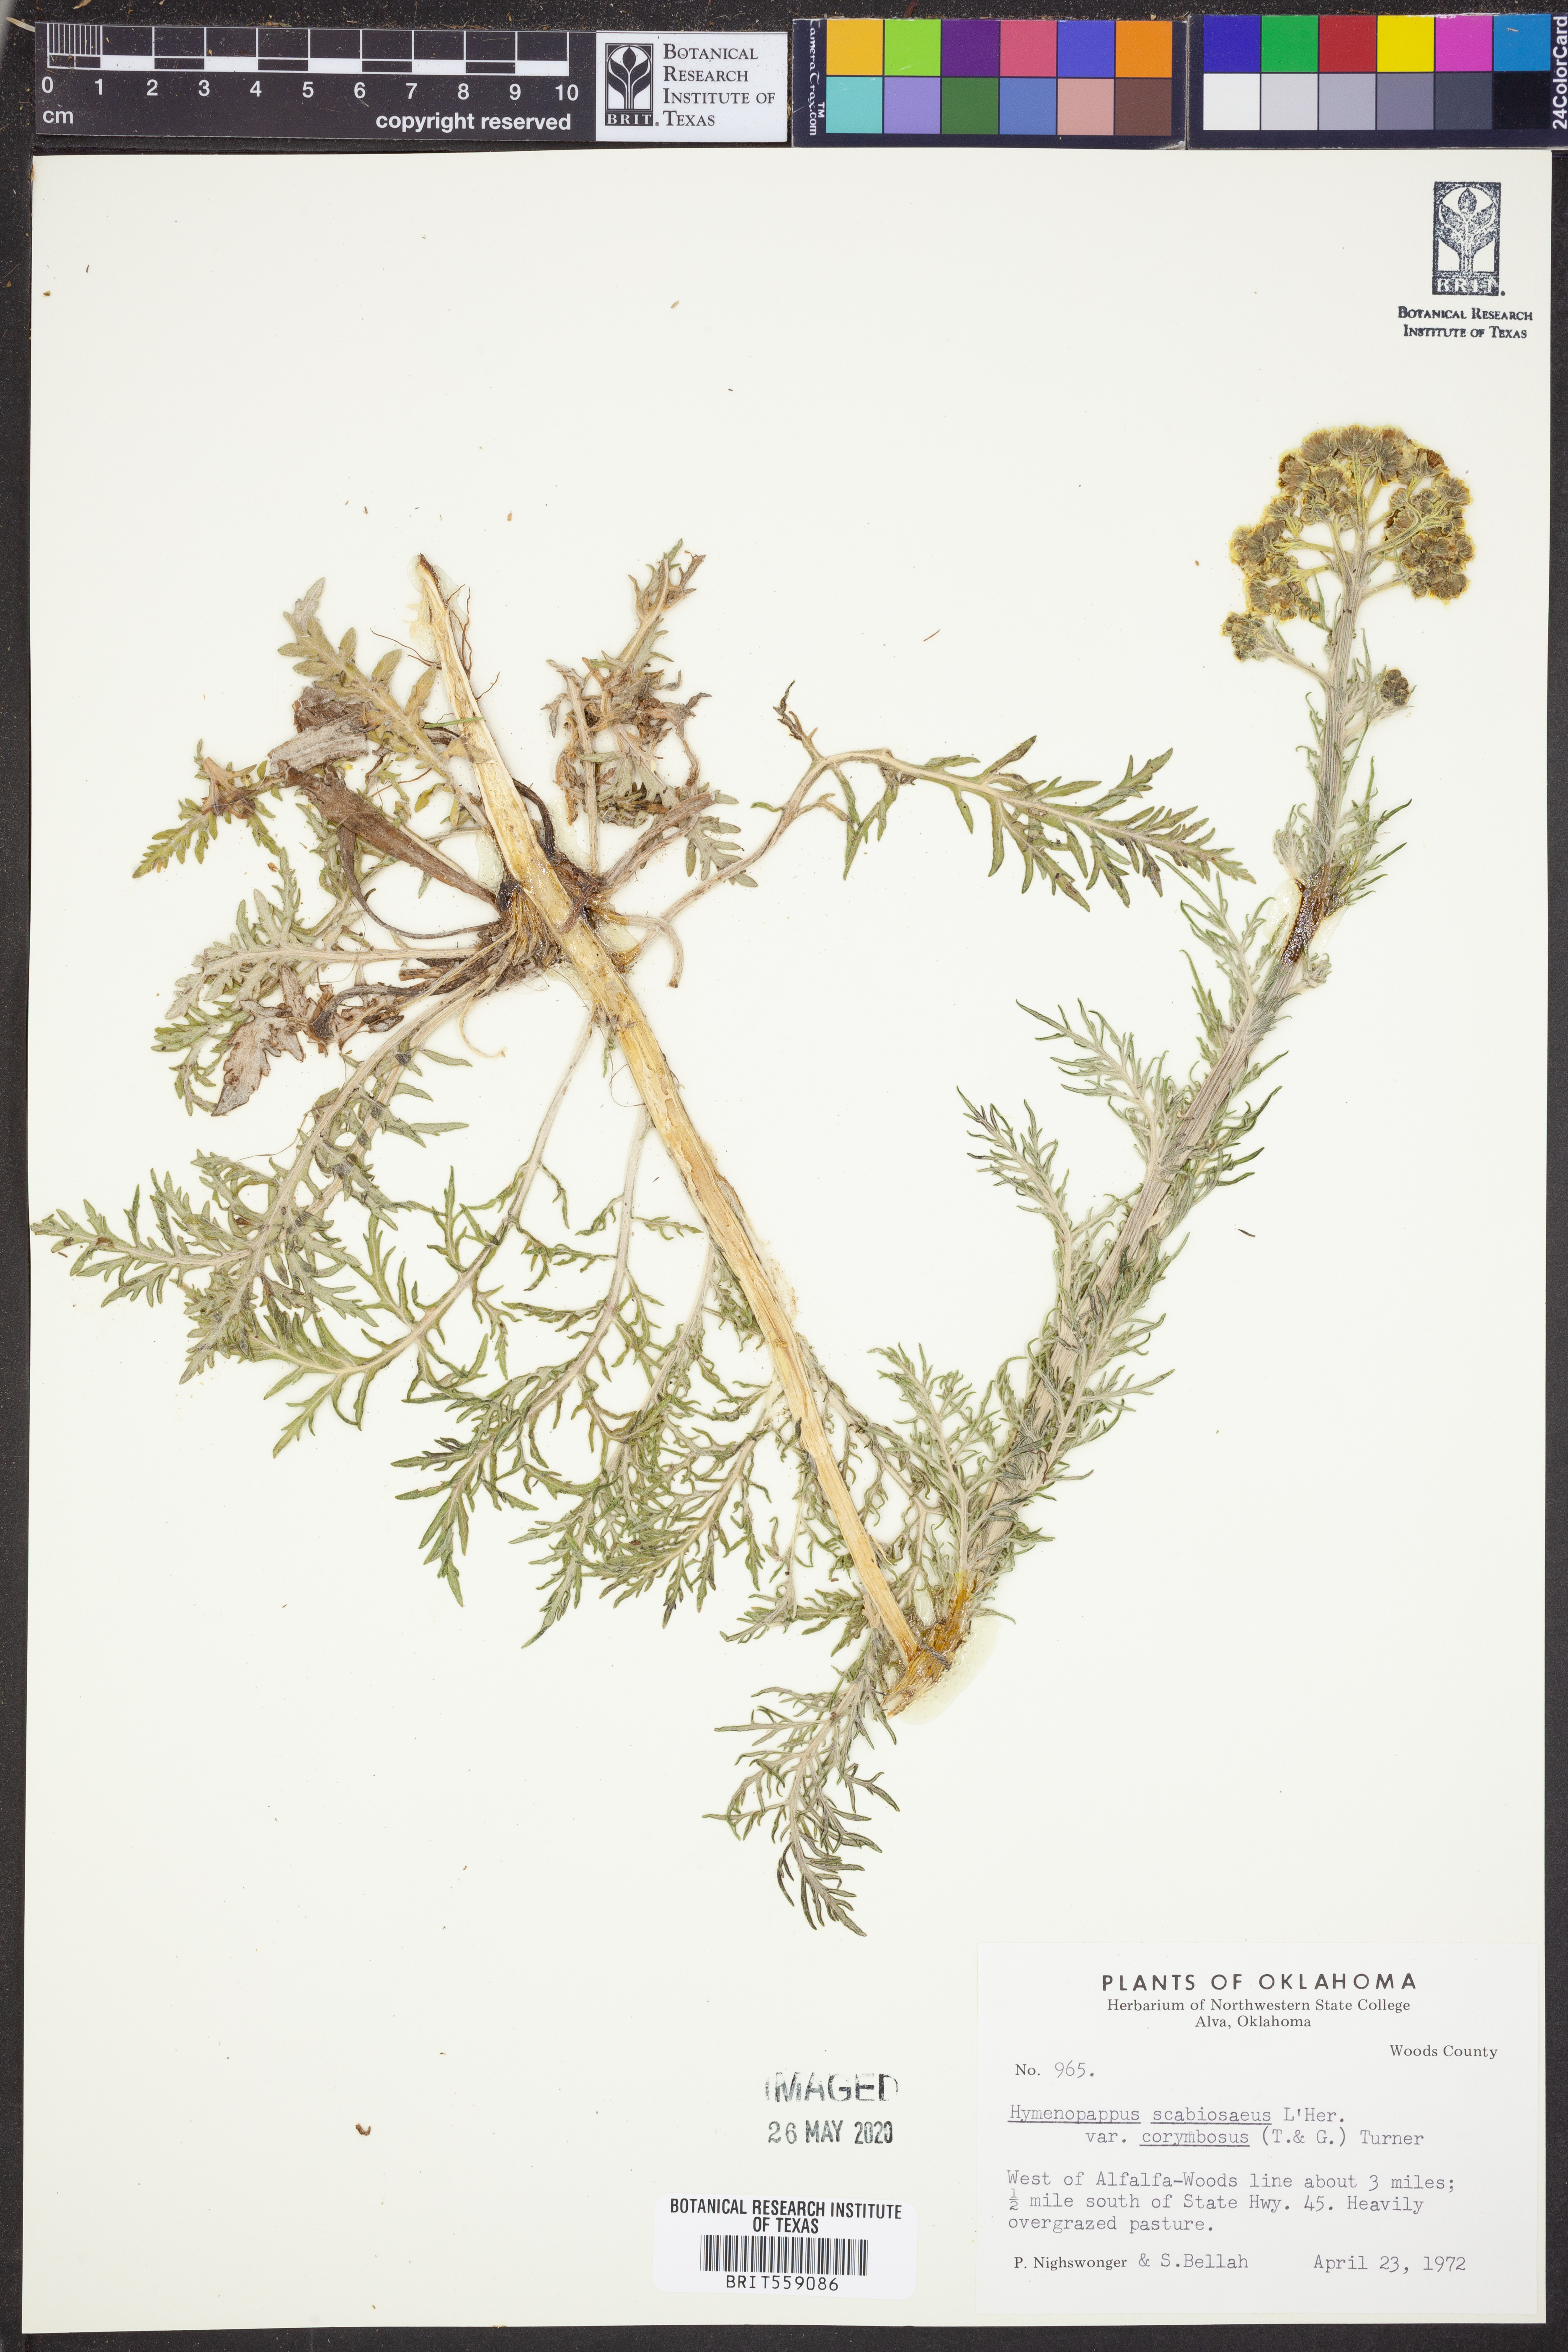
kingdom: Plantae
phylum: Tracheophyta
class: Magnoliopsida
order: Asterales
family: Asteraceae
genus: Hymenopappus
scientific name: Hymenopappus scabiosaeus
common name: Carolina woollywhite
